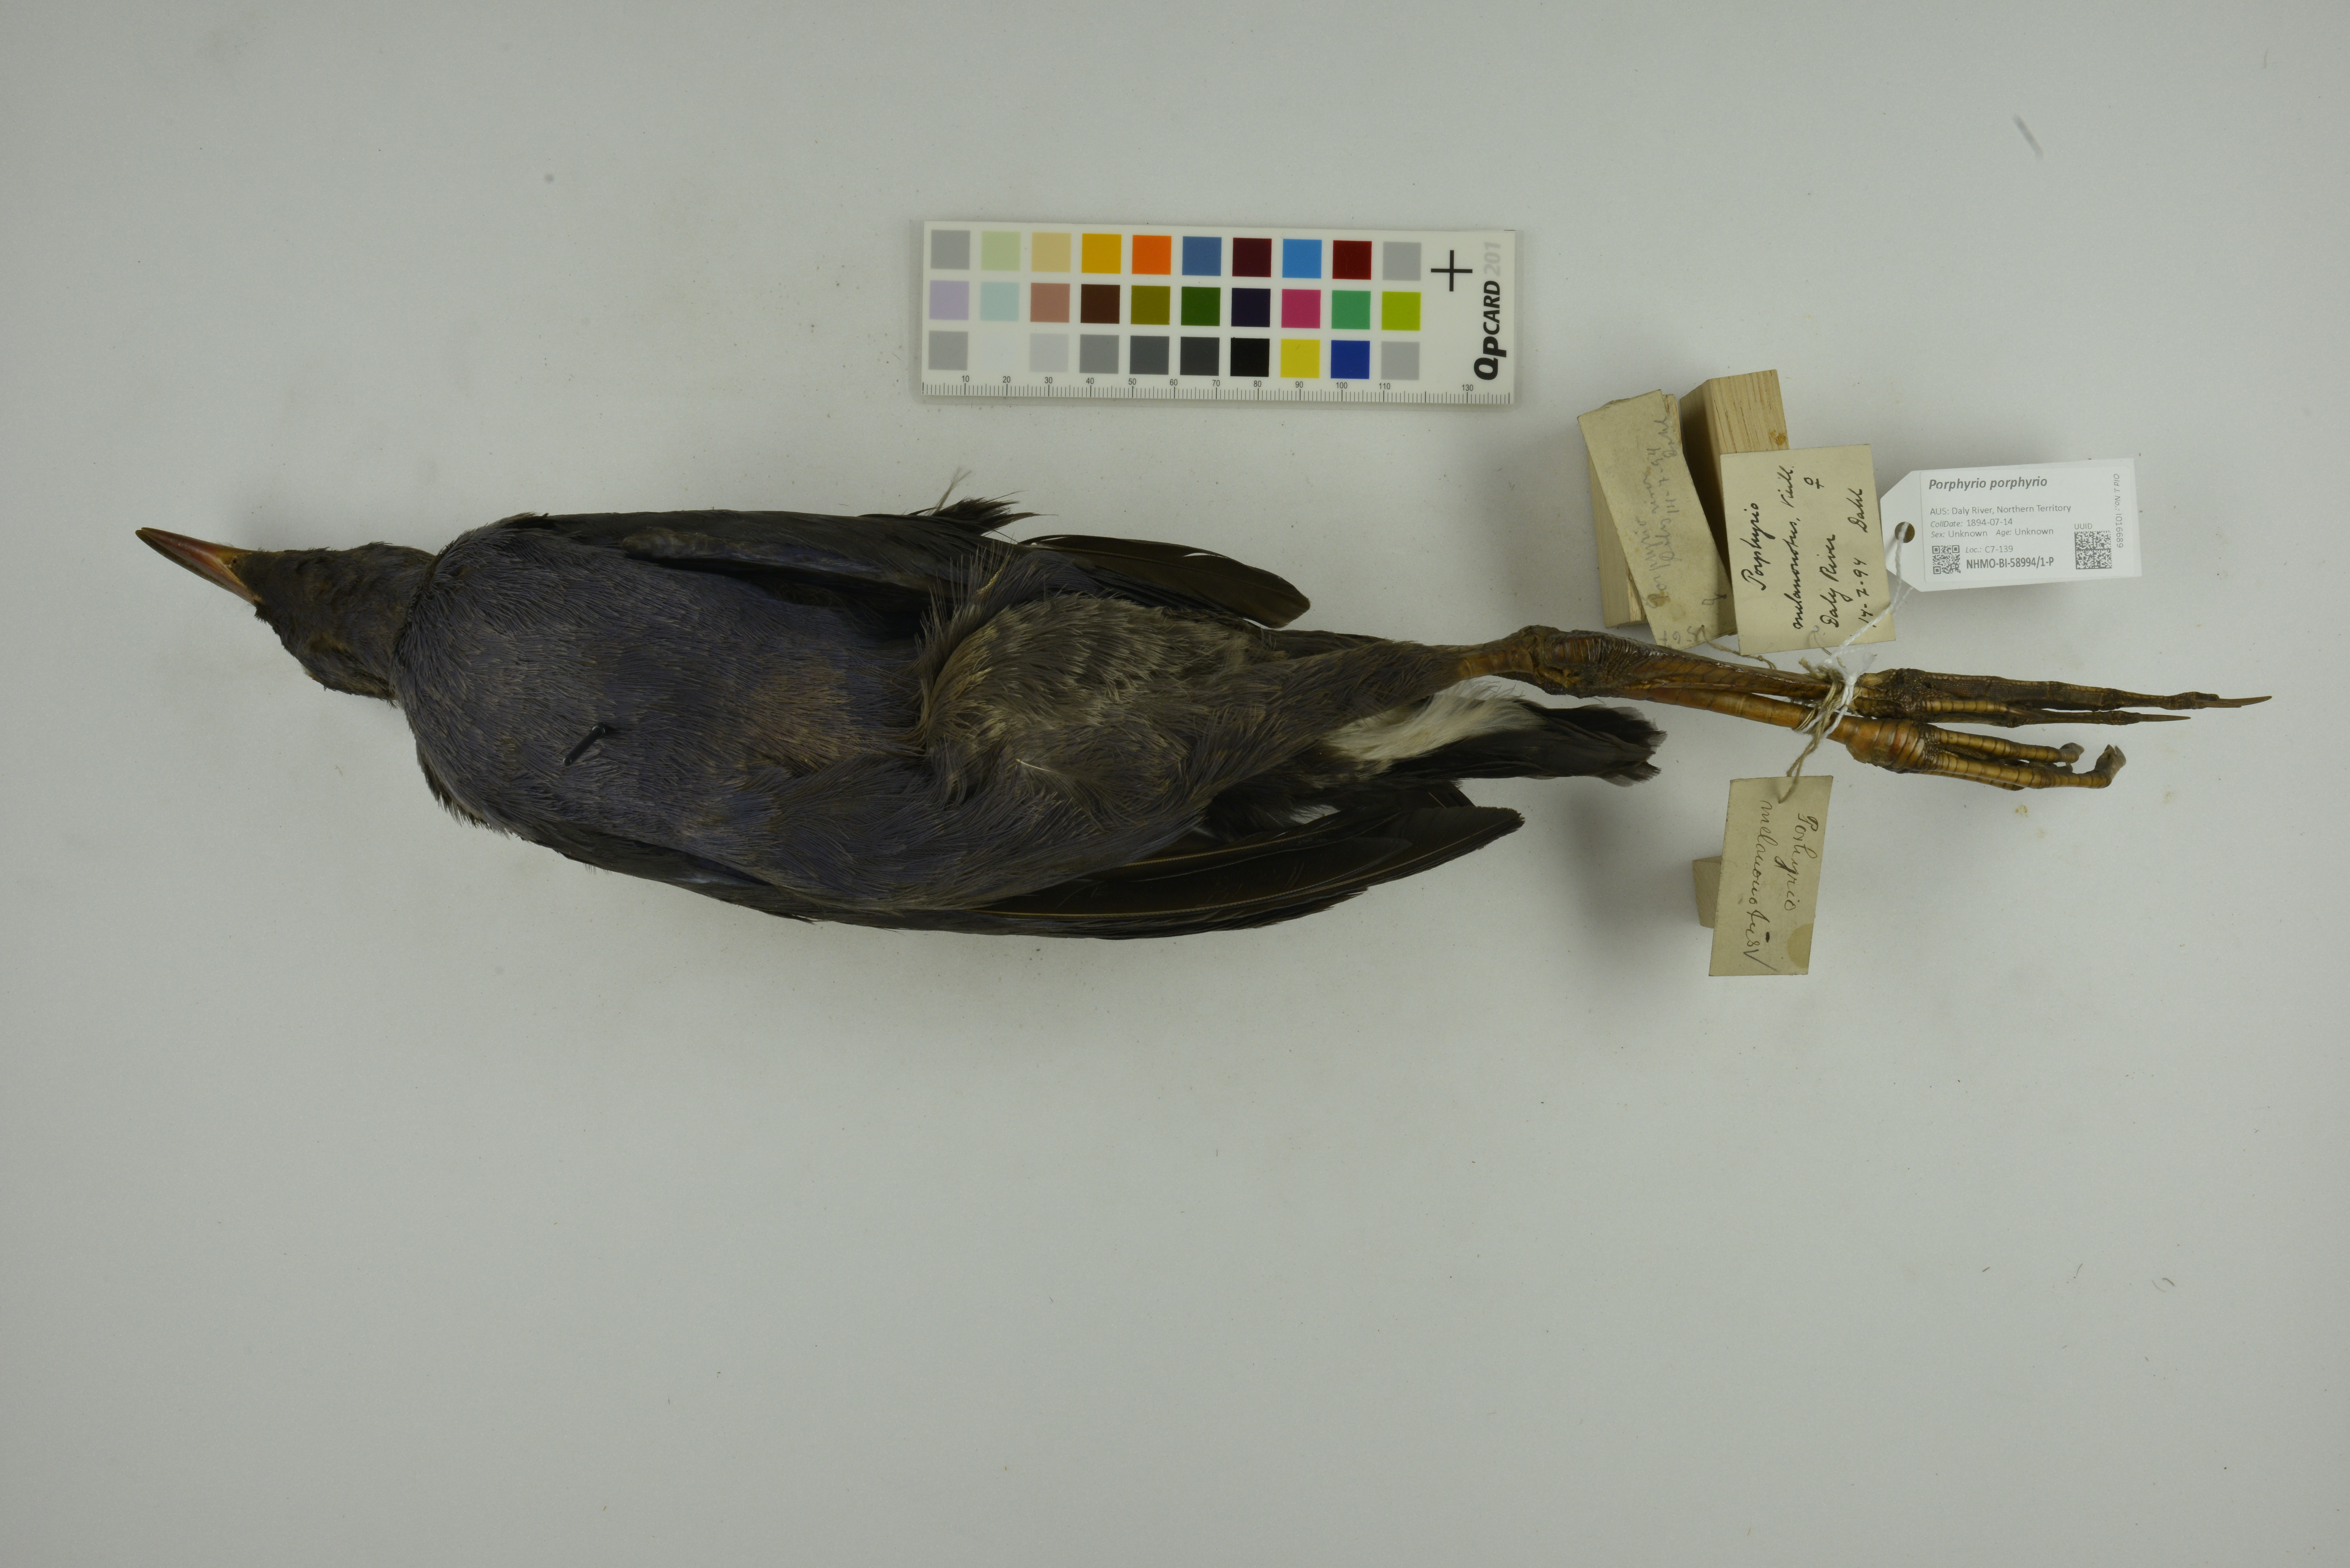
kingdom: Animalia
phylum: Chordata
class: Aves
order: Gruiformes
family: Rallidae
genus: Porphyrio
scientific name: Porphyrio porphyrio
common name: Purple swamphen
